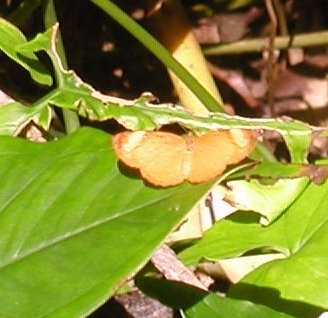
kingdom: Animalia
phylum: Arthropoda
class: Insecta
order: Lepidoptera
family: Nymphalidae
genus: Tegosa
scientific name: Tegosa anieta
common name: Black-bordered Crescent
